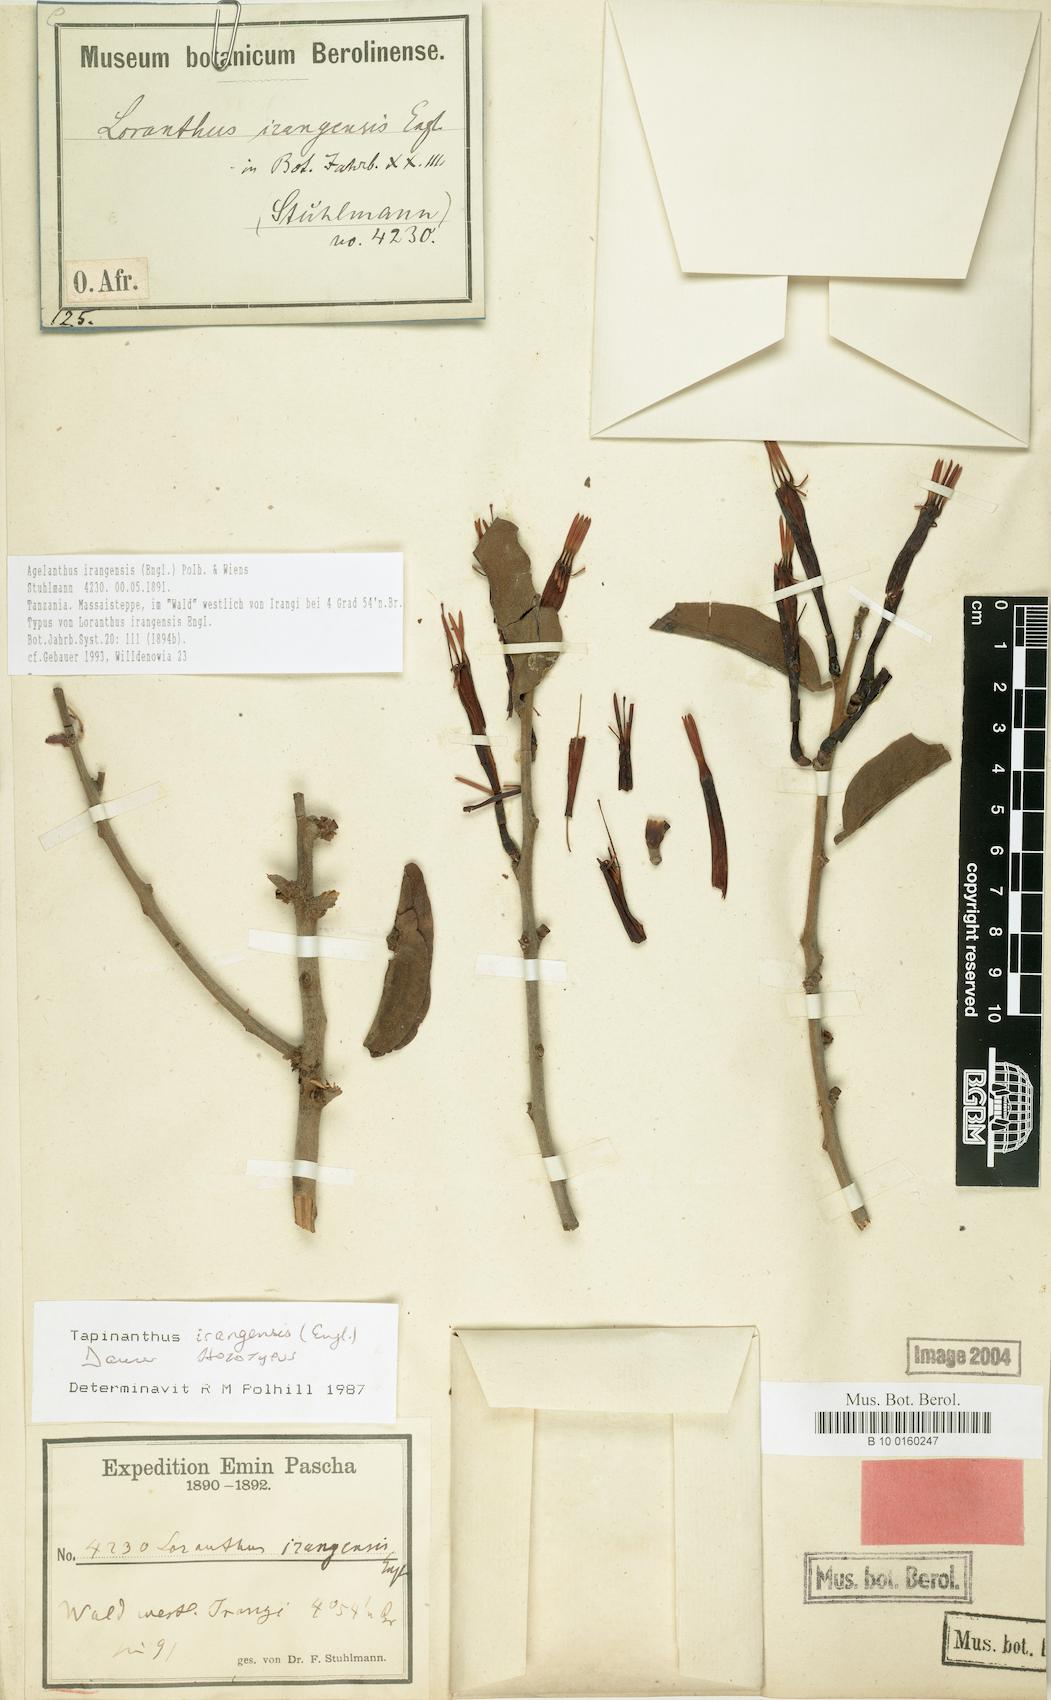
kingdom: Plantae
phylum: Tracheophyta
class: Magnoliopsida
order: Santalales
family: Loranthaceae
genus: Agelanthus
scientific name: Agelanthus irangensis
